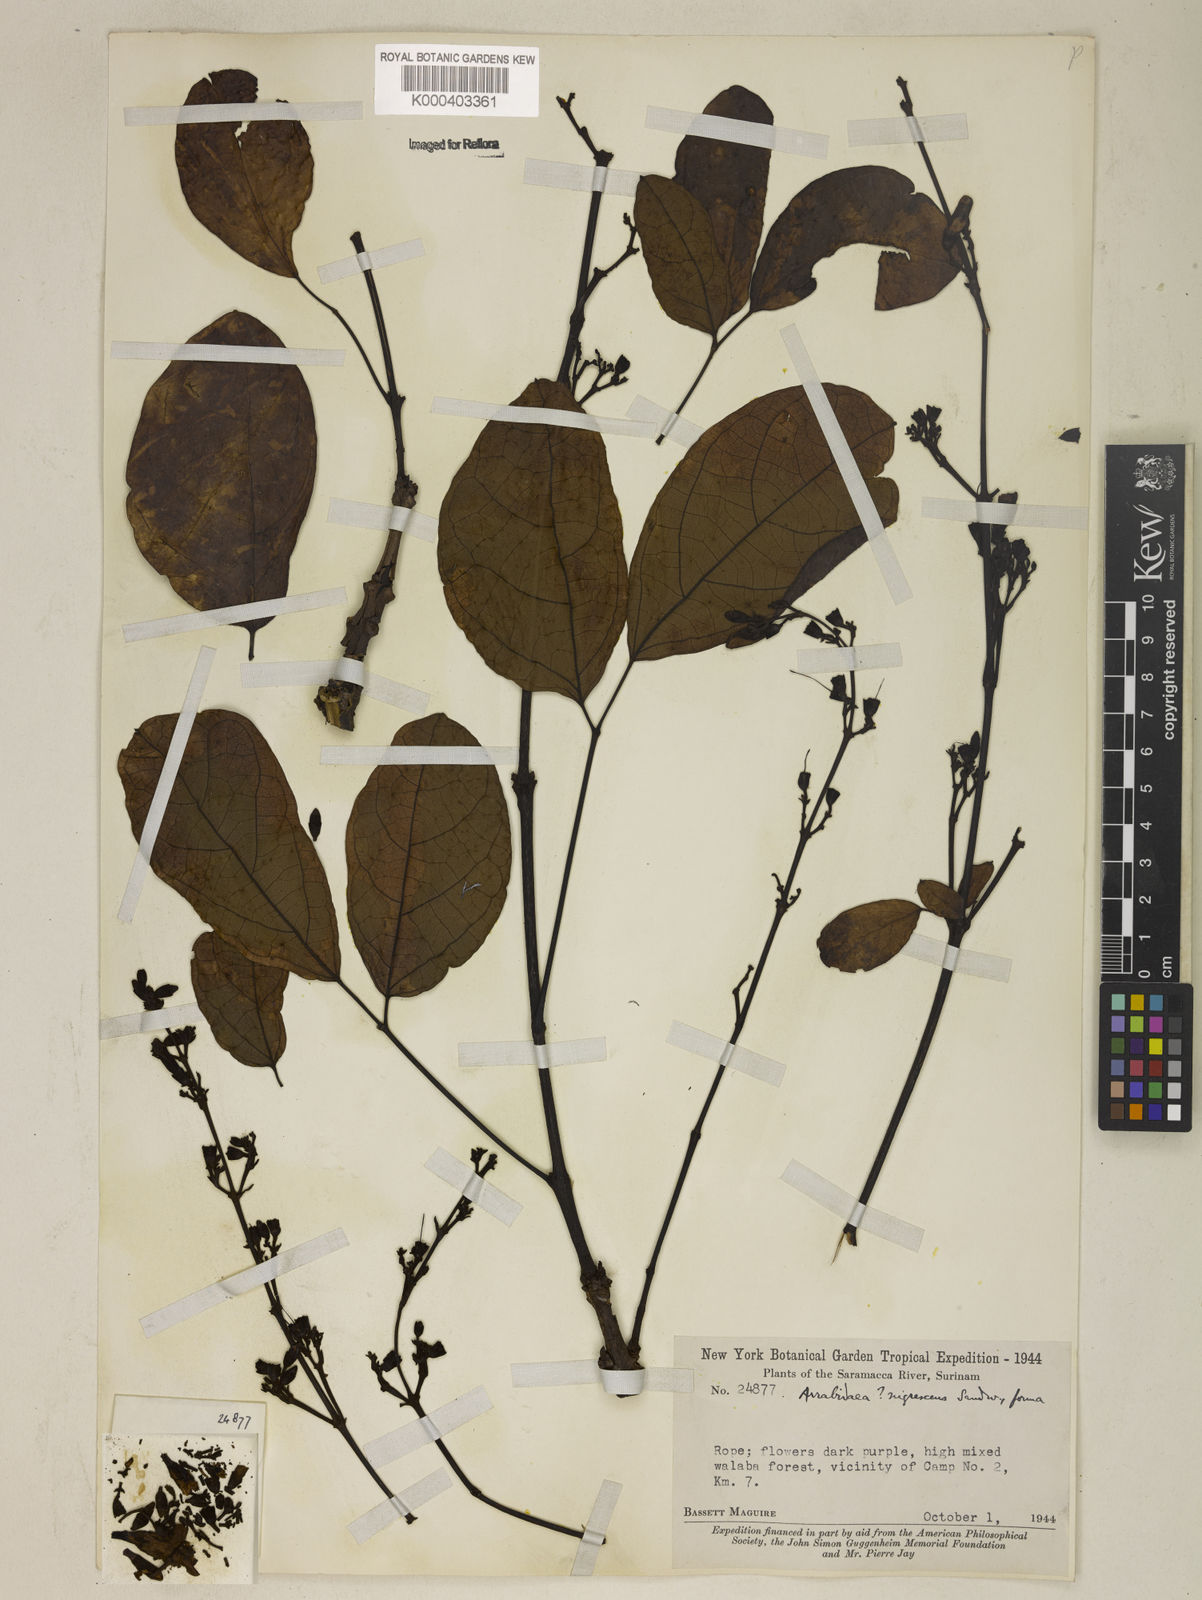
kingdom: Plantae
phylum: Tracheophyta
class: Magnoliopsida
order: Lamiales
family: Bignoniaceae
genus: Fridericia
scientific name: Fridericia nigrescens
